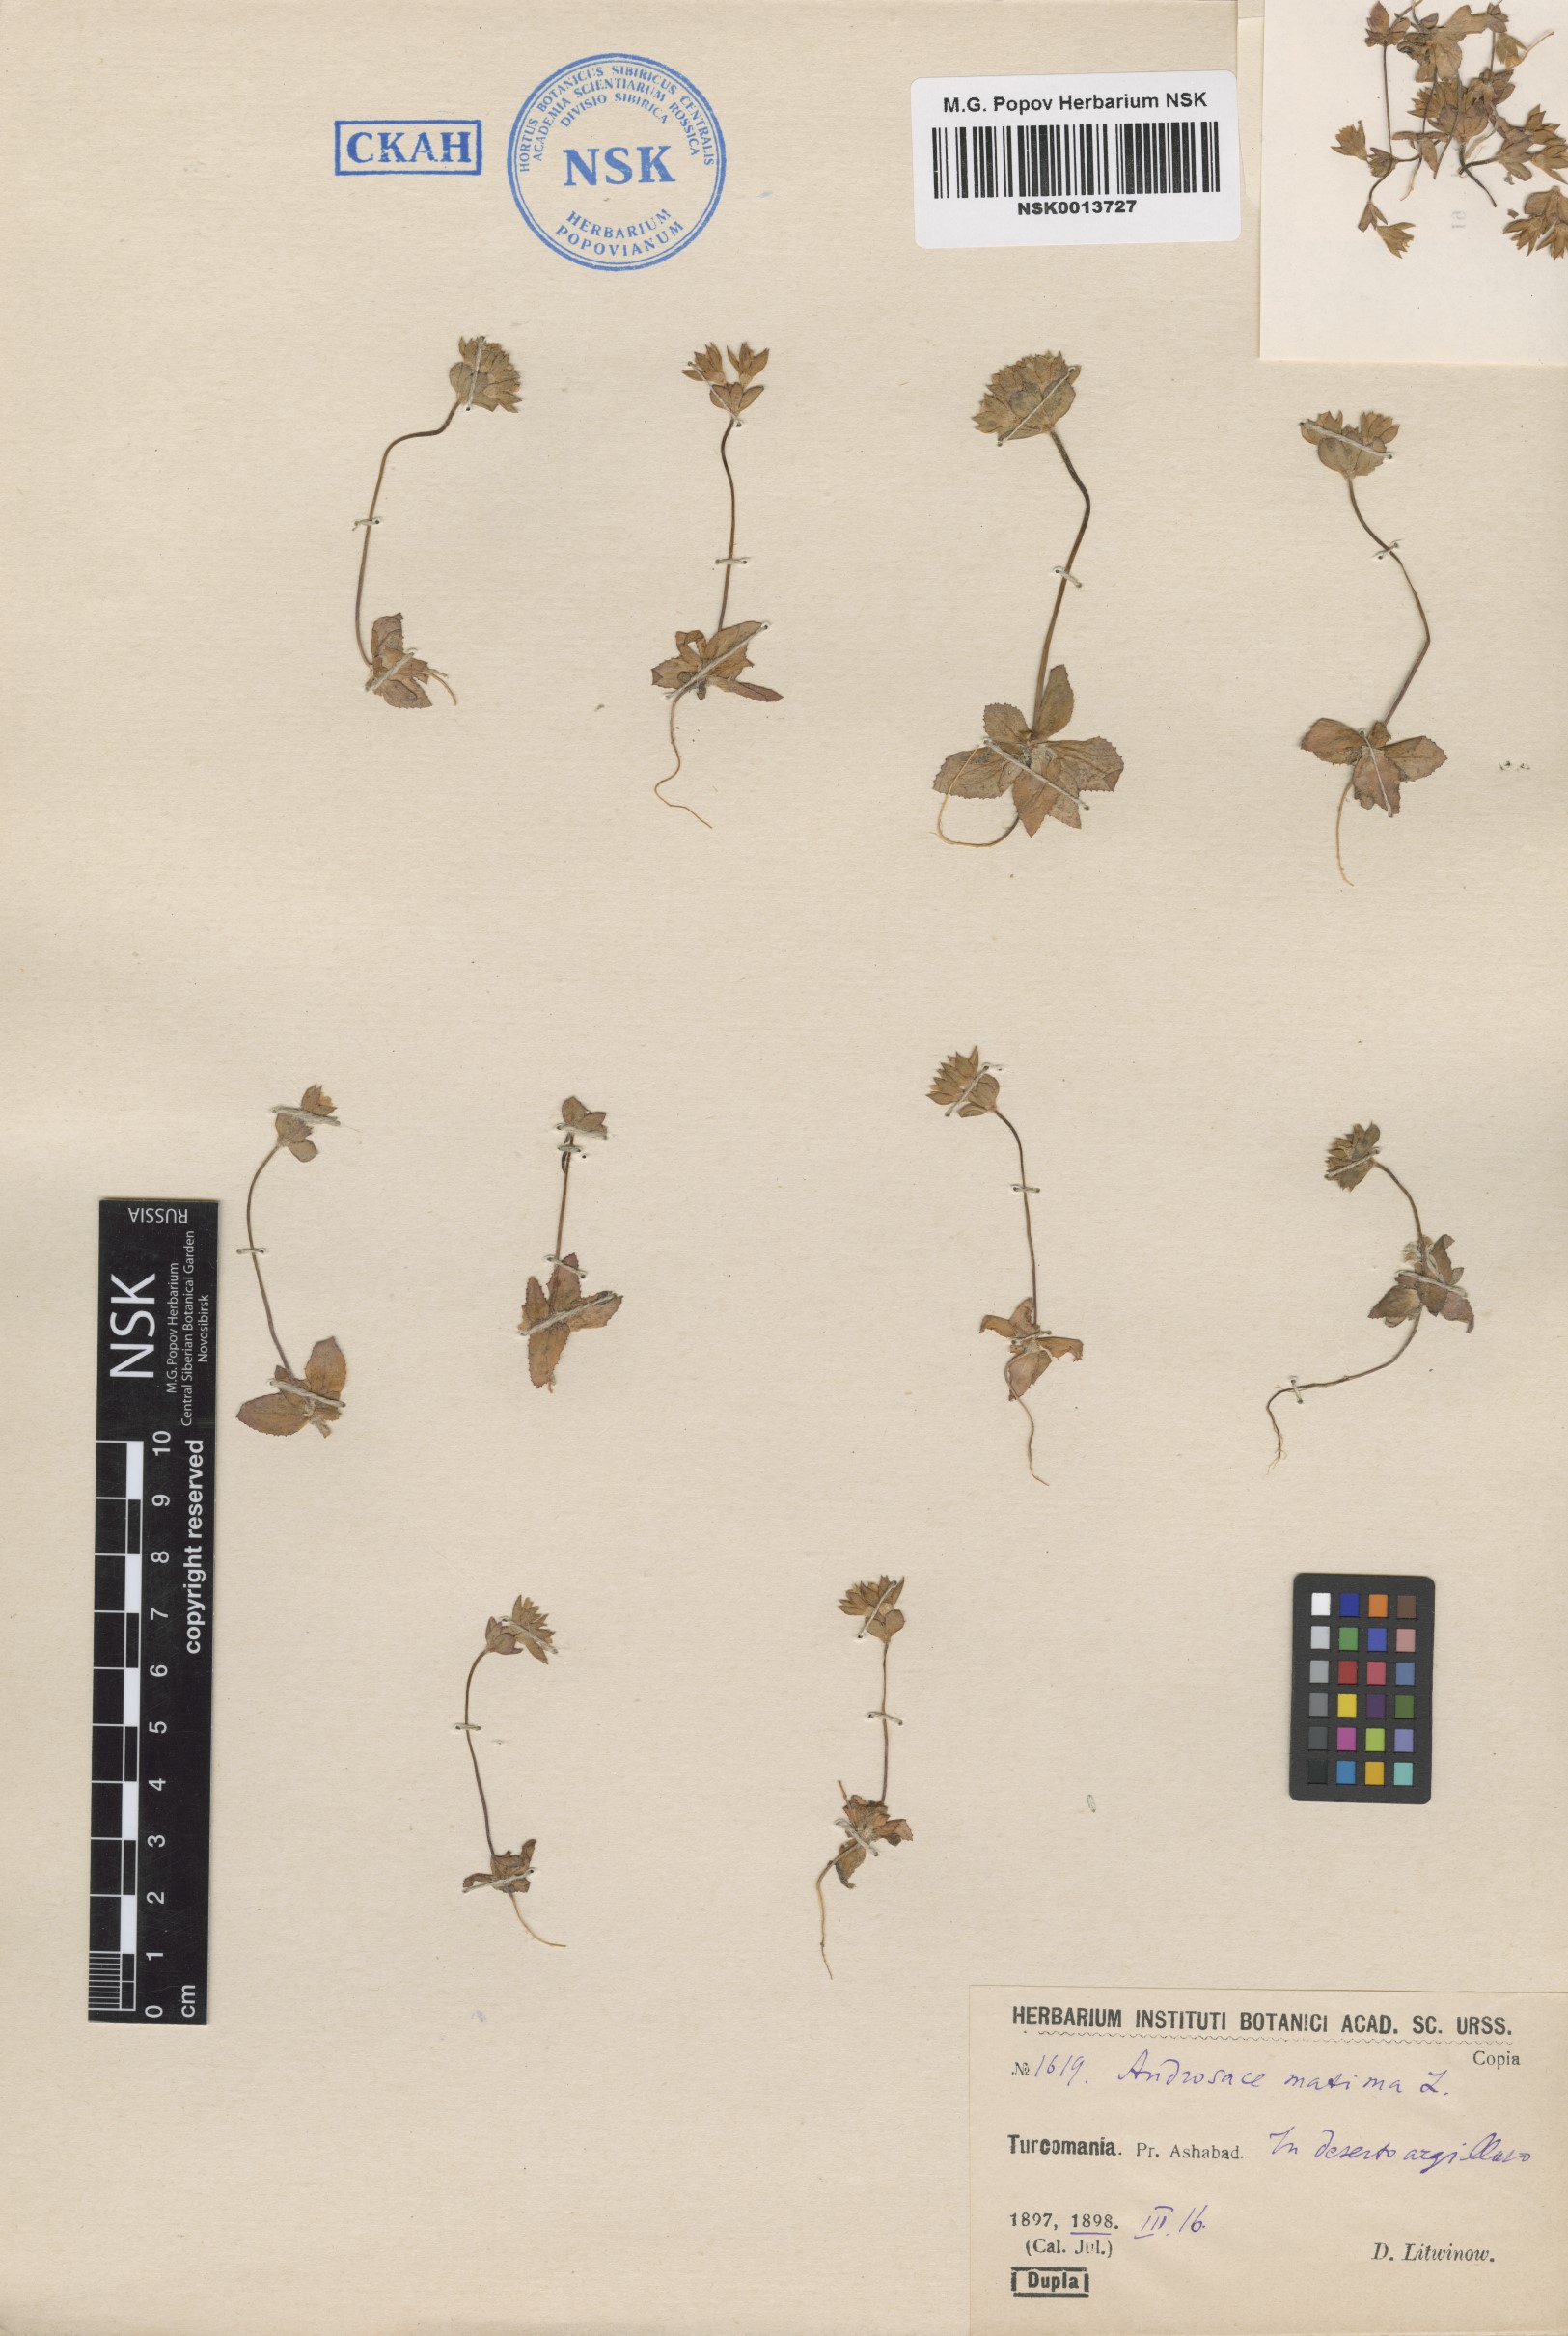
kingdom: Plantae
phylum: Tracheophyta
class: Magnoliopsida
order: Ericales
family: Primulaceae
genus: Androsace
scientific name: Androsace maxima
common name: Annual androsace
